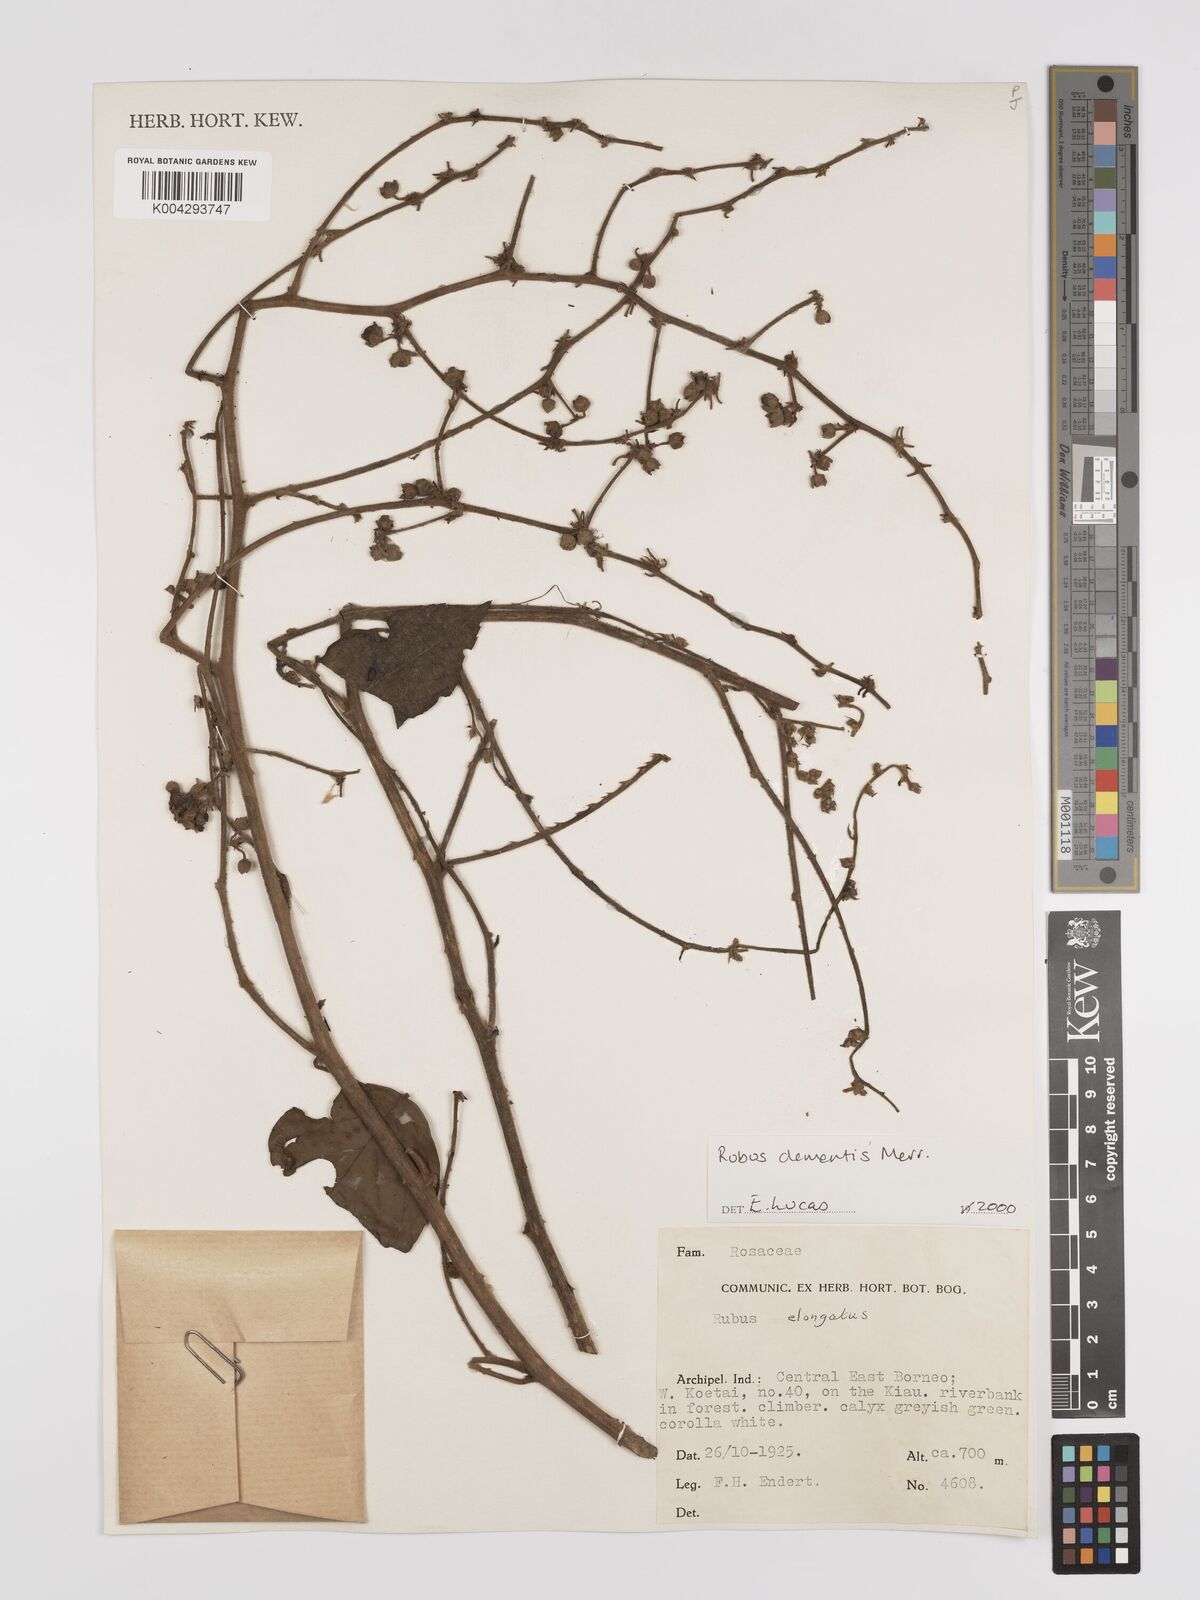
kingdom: Plantae
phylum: Tracheophyta
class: Magnoliopsida
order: Rosales
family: Rosaceae
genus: Rubus
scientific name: Rubus clementis
